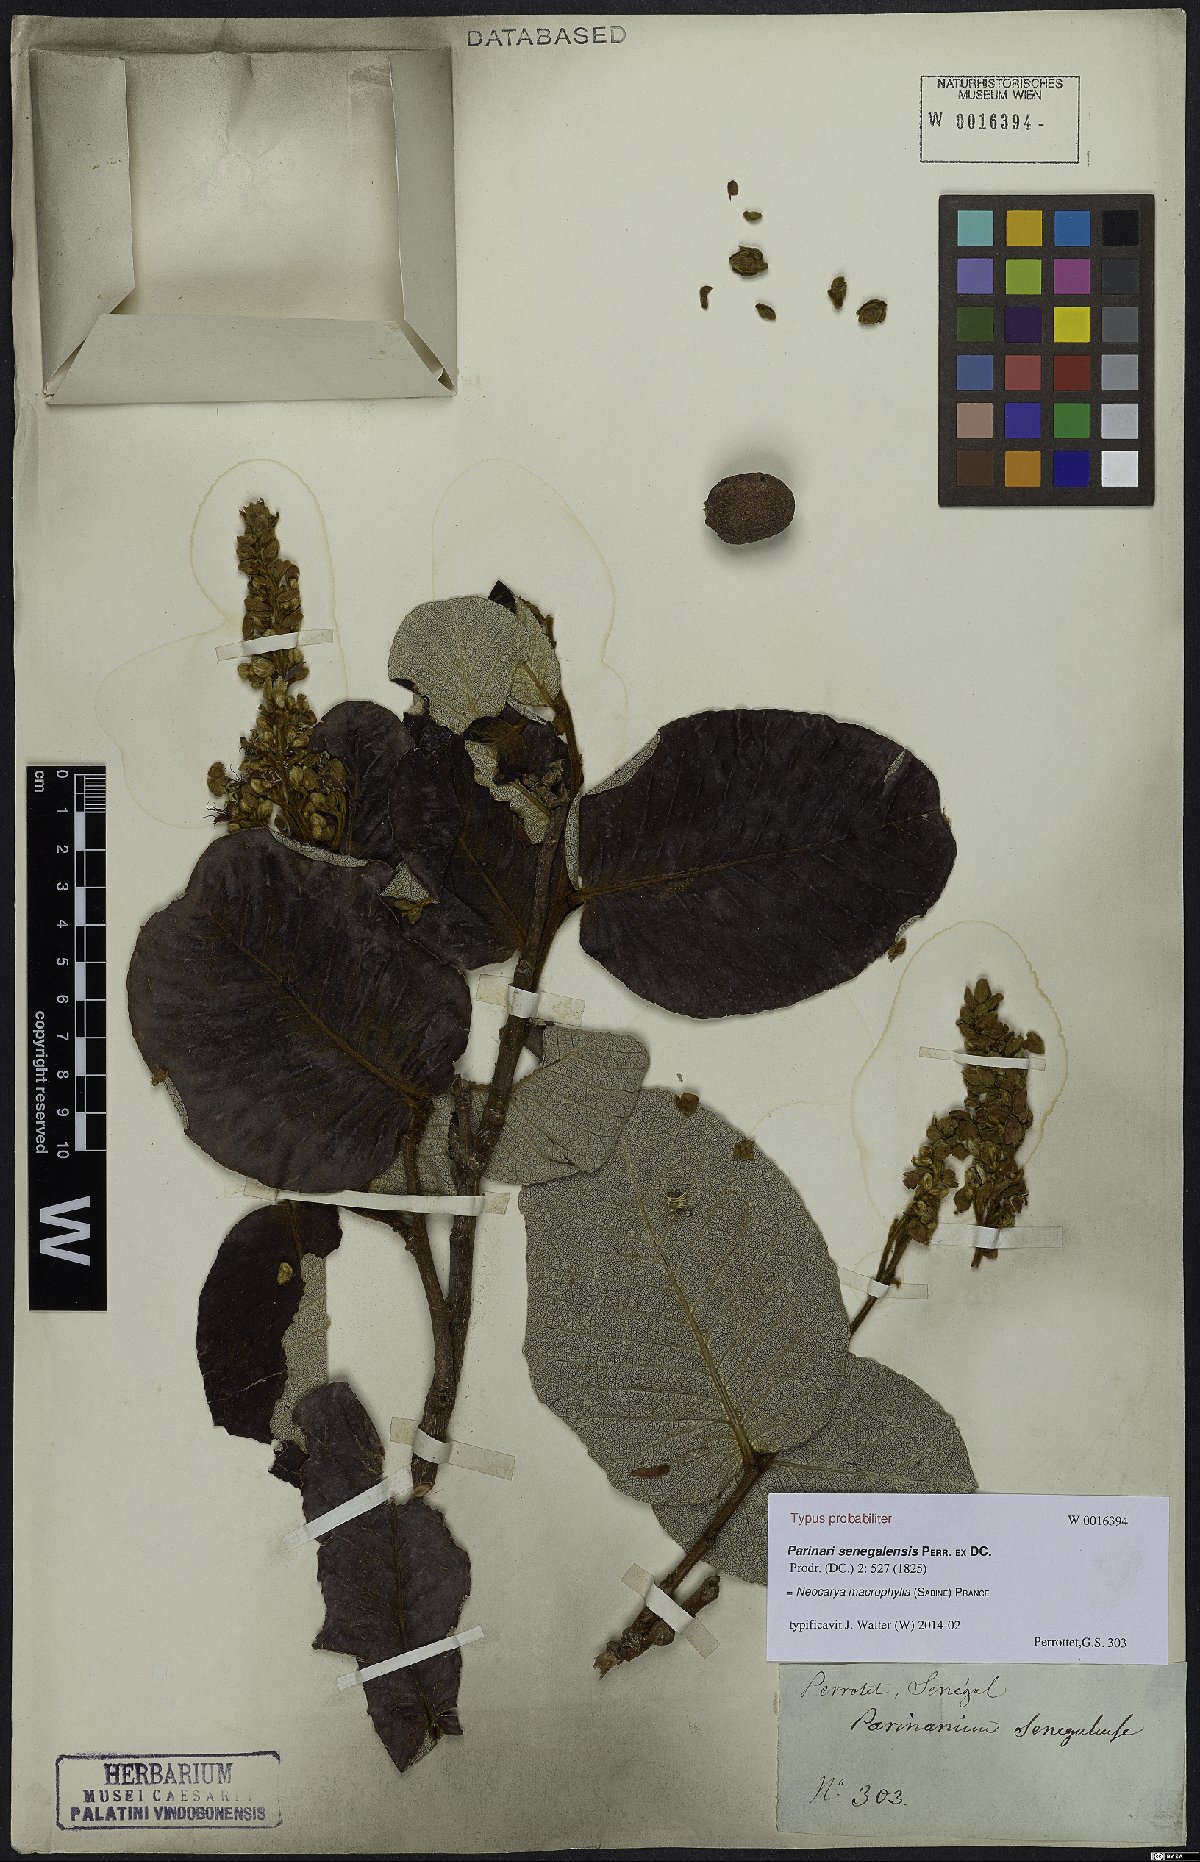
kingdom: Plantae
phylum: Tracheophyta
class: Magnoliopsida
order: Malpighiales
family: Chrysobalanaceae
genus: Neocarya
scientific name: Neocarya macrophylla
